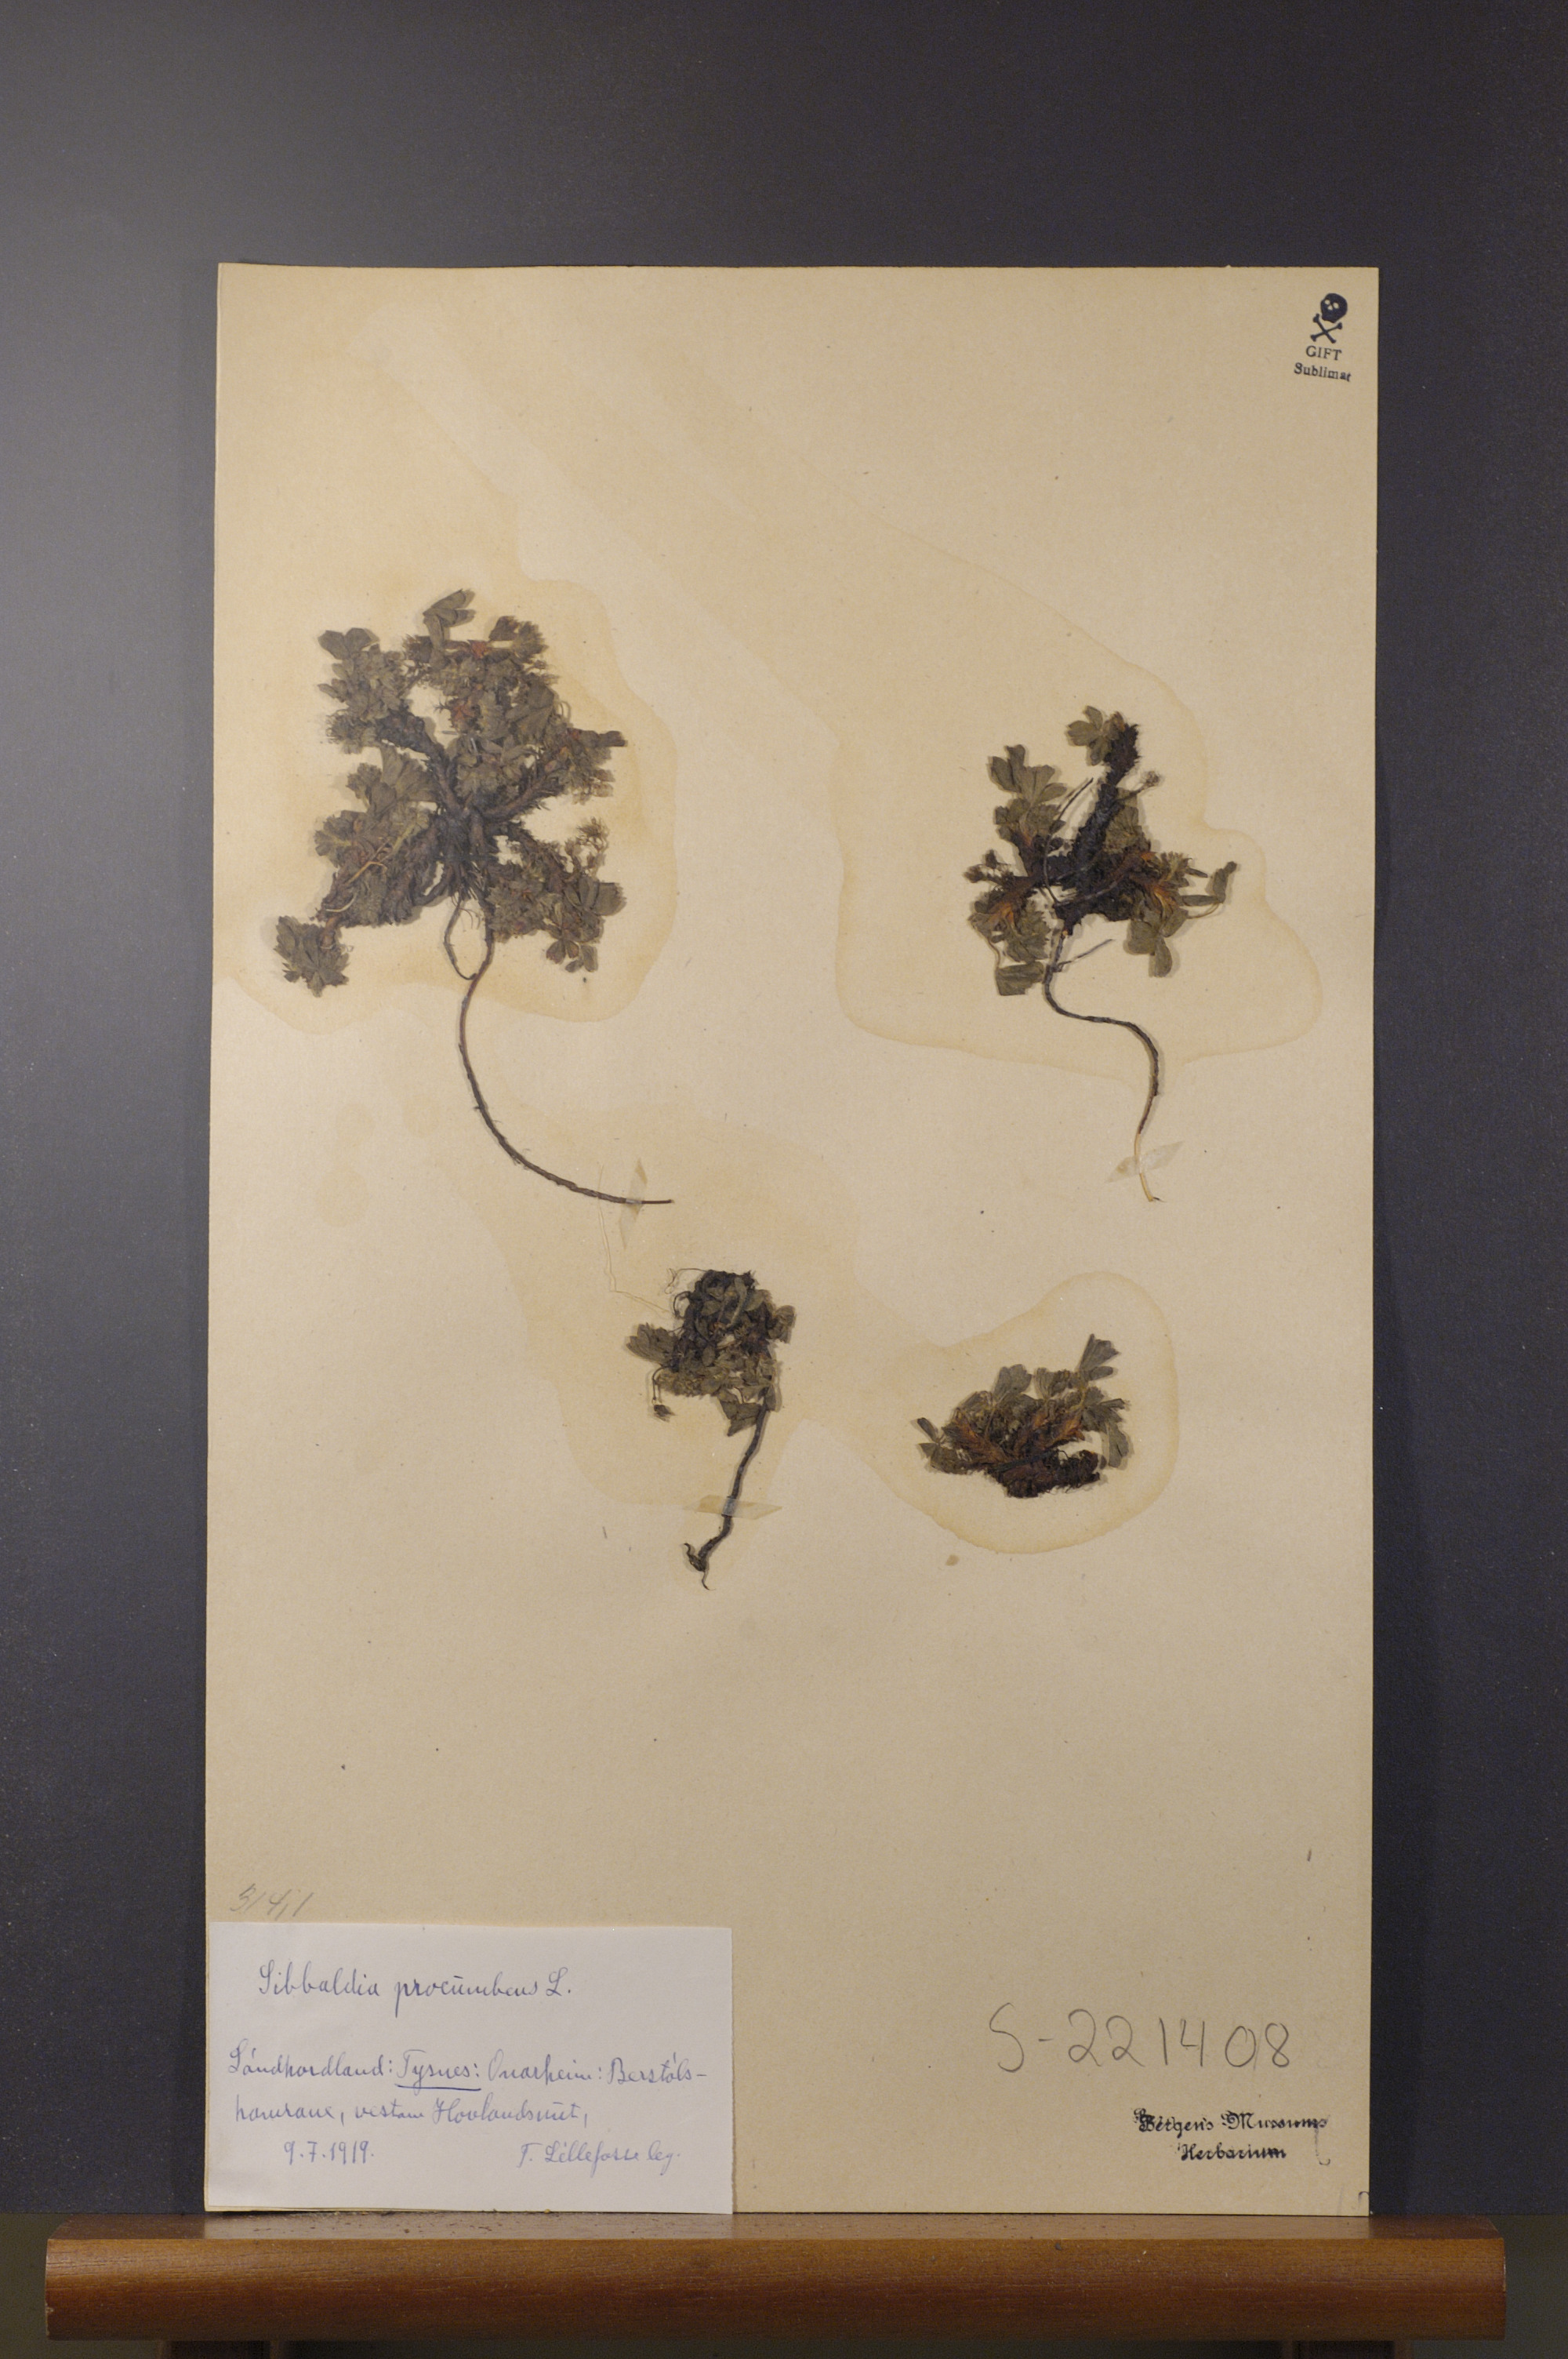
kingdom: Plantae
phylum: Tracheophyta
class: Magnoliopsida
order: Rosales
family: Rosaceae
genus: Sibbaldia
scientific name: Sibbaldia procumbens
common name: Creeping sibbaldia
